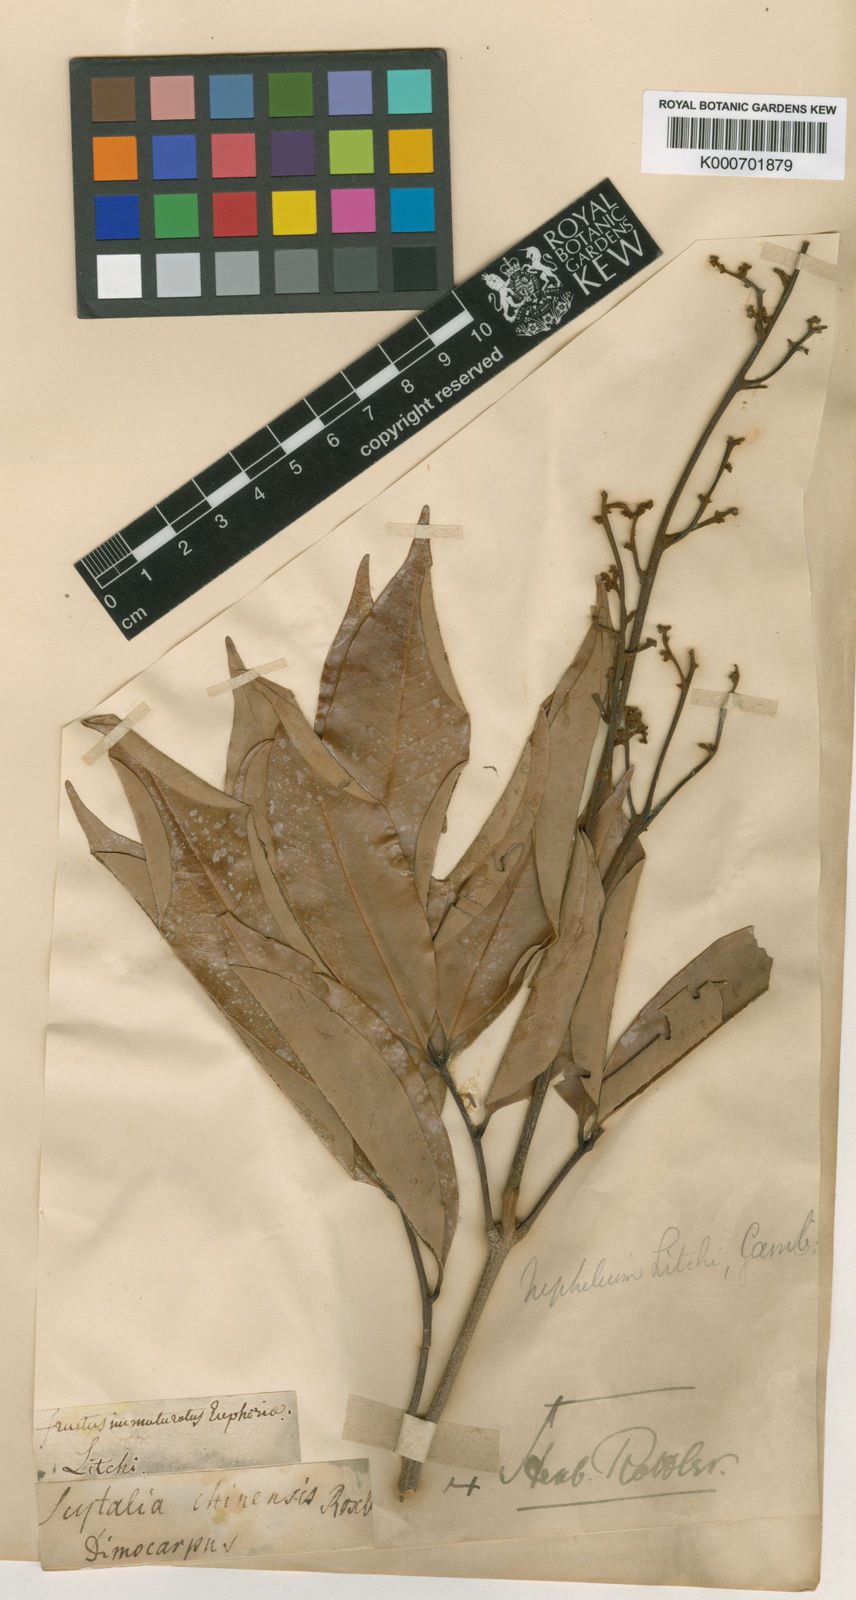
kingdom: Plantae
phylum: Tracheophyta
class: Magnoliopsida
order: Sapindales
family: Sapindaceae
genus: Litchi
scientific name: Litchi chinensis
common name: Litchi
